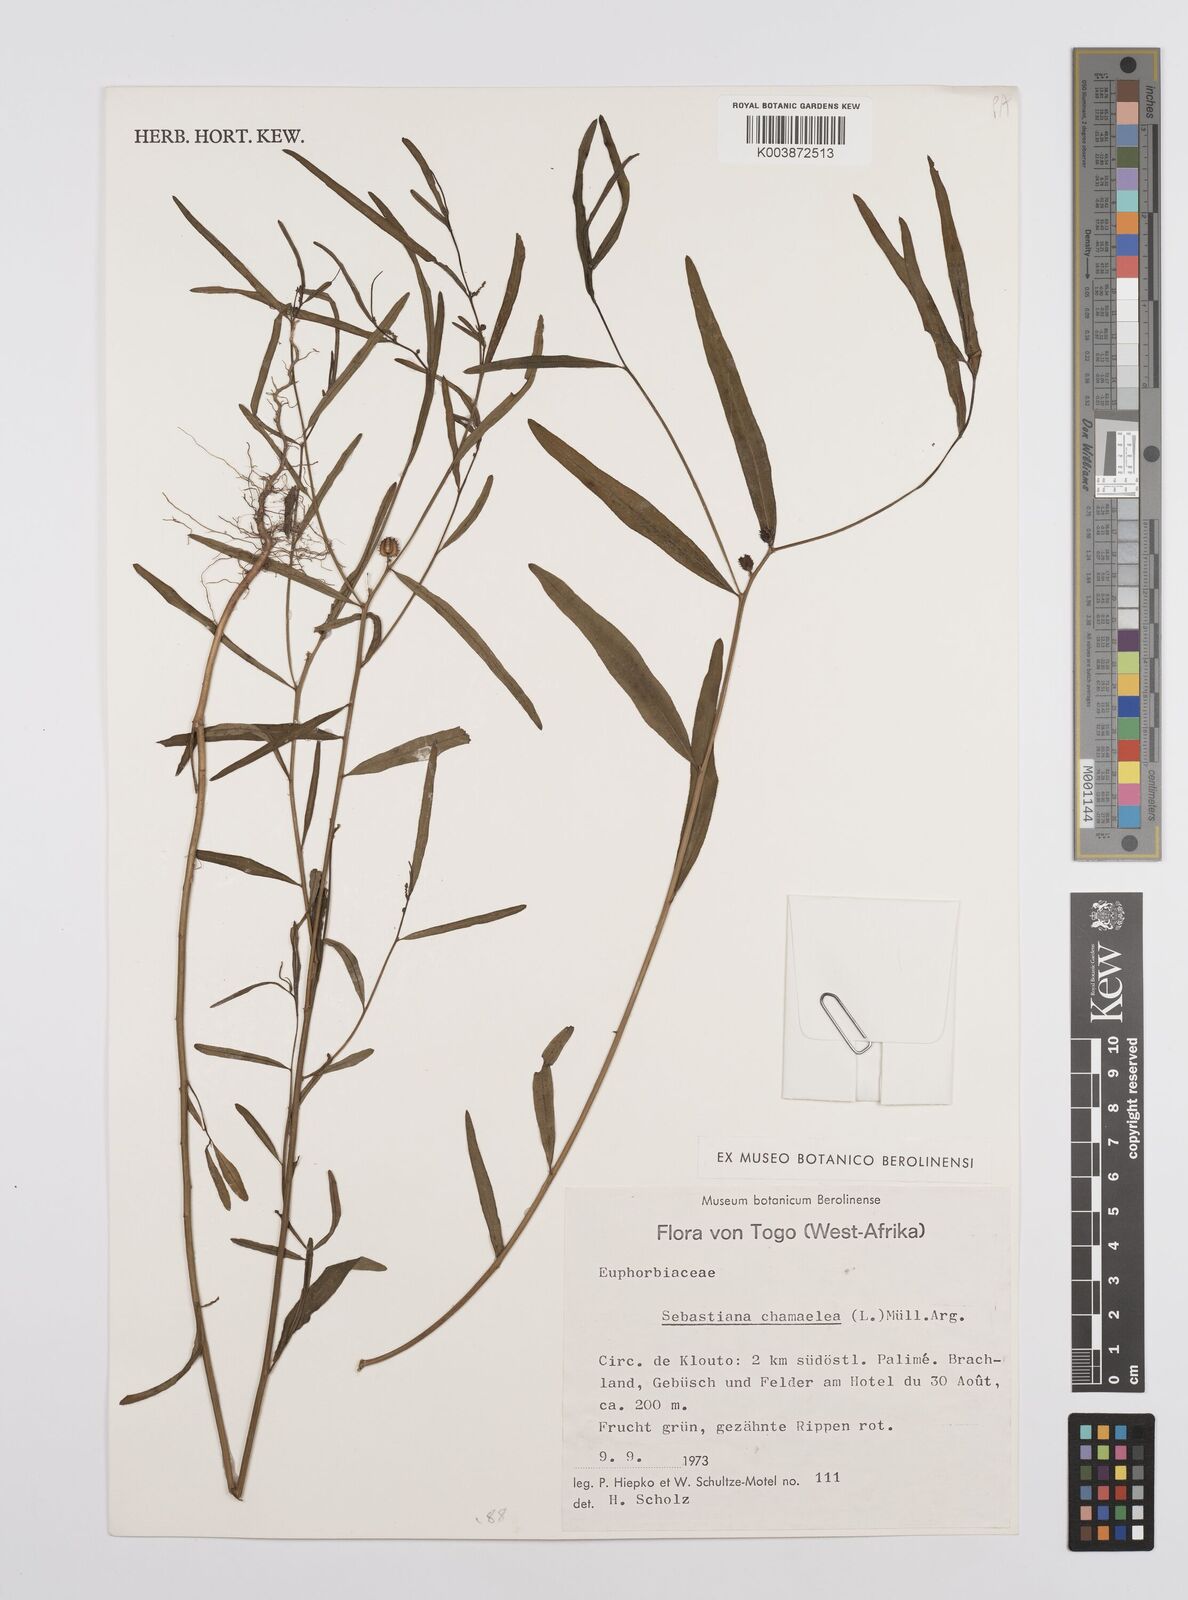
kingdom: Plantae
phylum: Tracheophyta
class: Magnoliopsida
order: Malpighiales
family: Euphorbiaceae
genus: Microstachys
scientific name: Microstachys chamaelea
